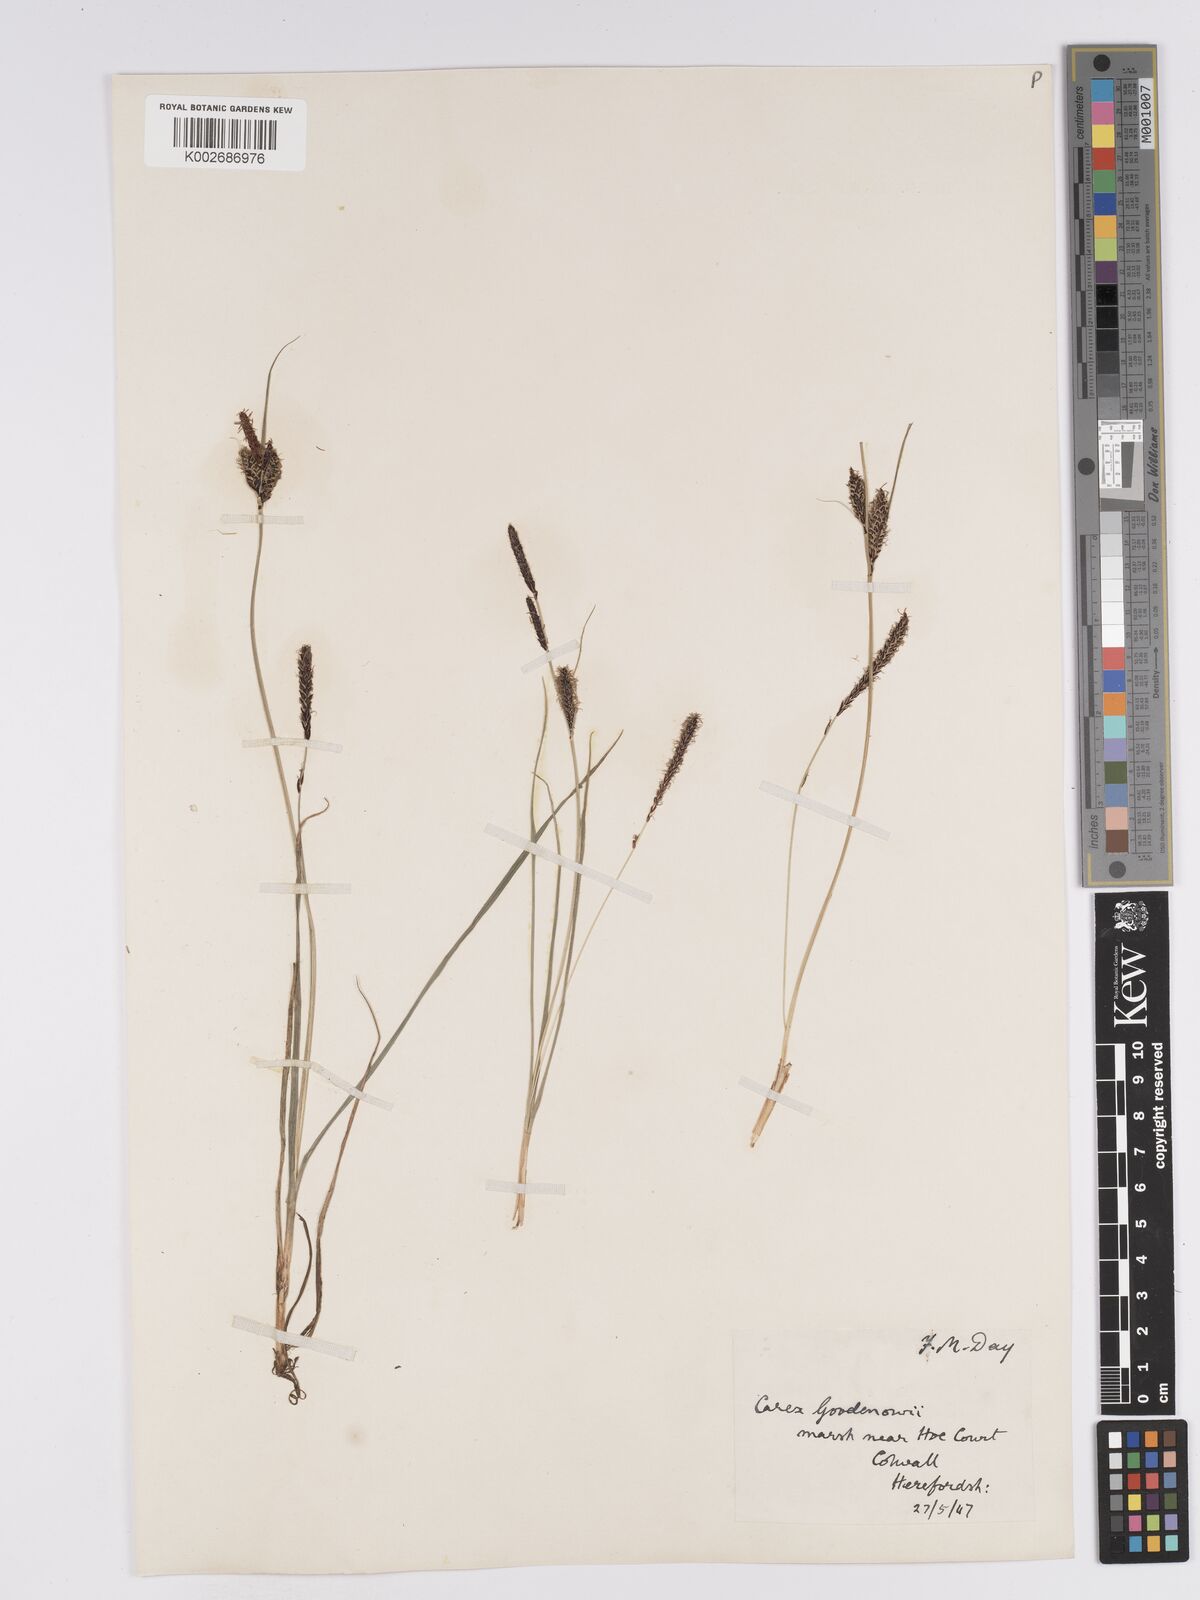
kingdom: Plantae
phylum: Tracheophyta
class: Liliopsida
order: Poales
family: Cyperaceae
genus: Carex
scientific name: Carex nigra
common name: Common sedge
